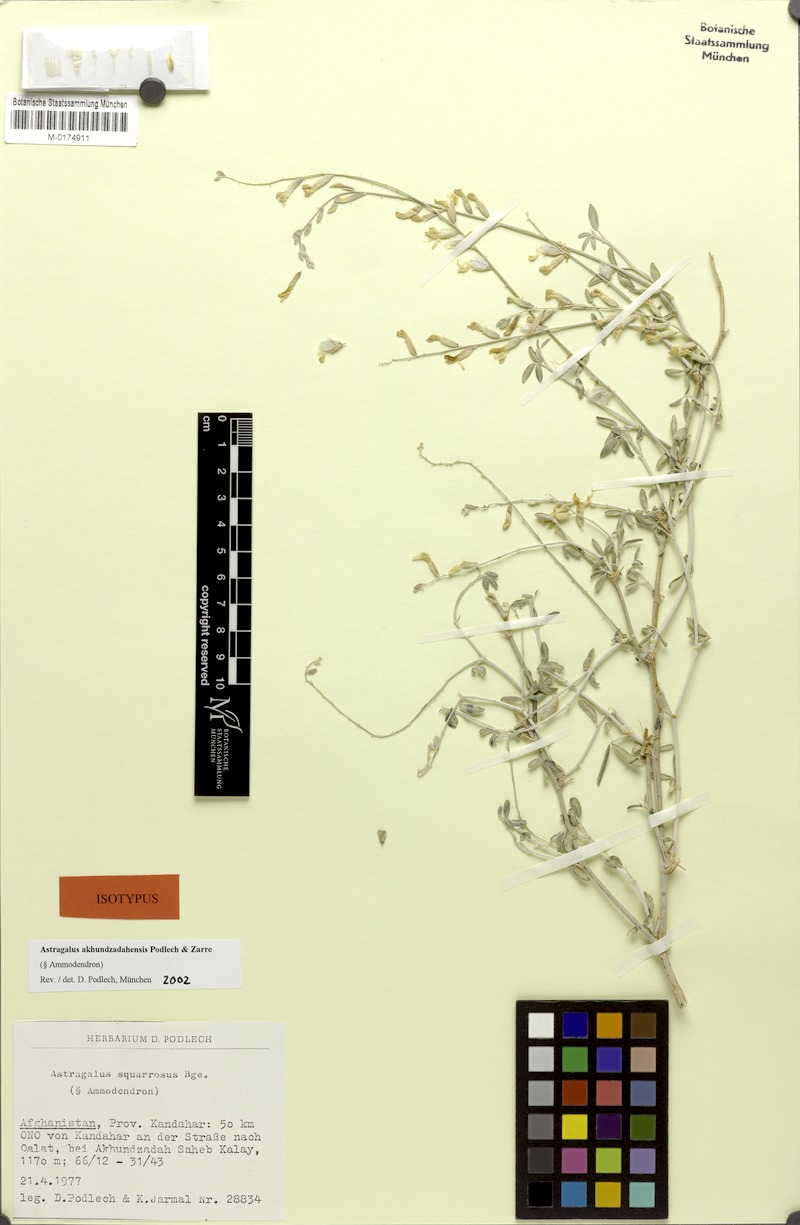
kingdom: Plantae
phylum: Tracheophyta
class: Magnoliopsida
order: Fabales
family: Fabaceae
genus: Astragalus
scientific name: Astragalus akhundzadahensis
